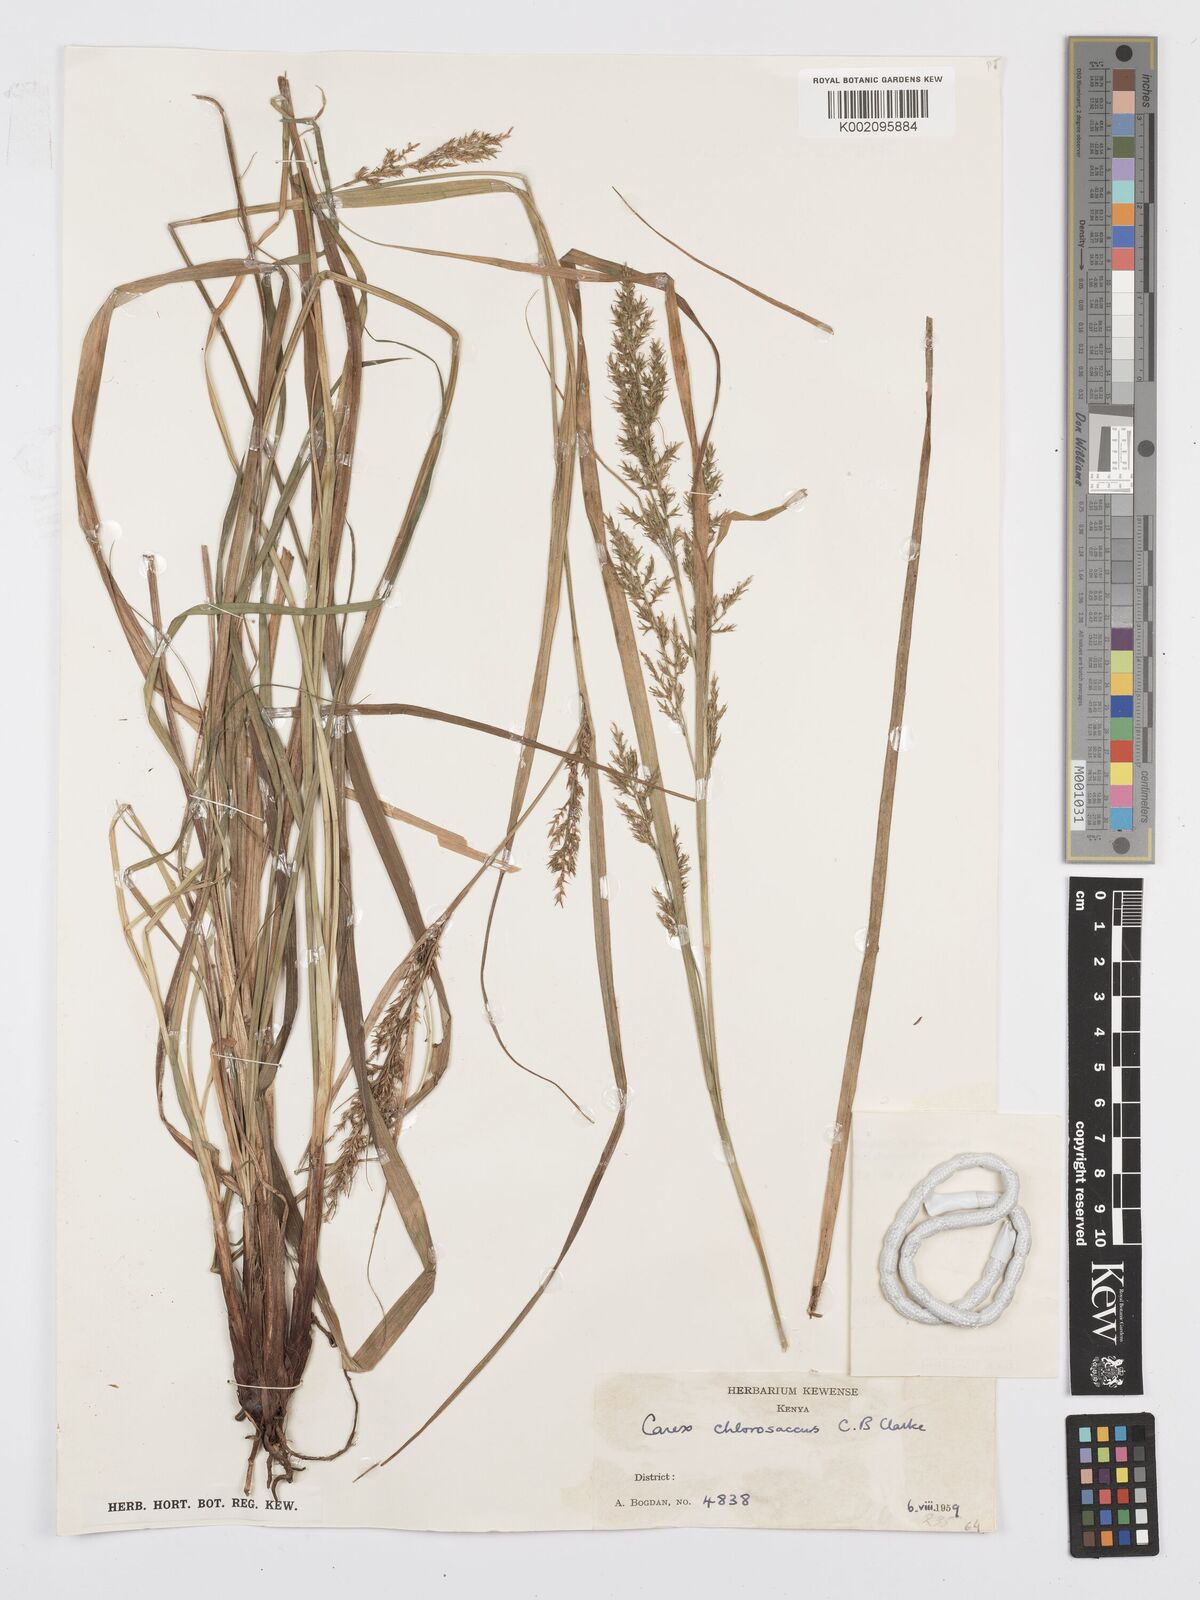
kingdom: Plantae
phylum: Tracheophyta
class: Liliopsida
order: Poales
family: Cyperaceae
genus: Carex
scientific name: Carex chlorosaccus
